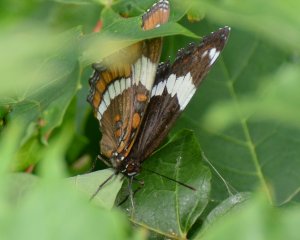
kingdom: Animalia
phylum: Arthropoda
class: Insecta
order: Lepidoptera
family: Nymphalidae
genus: Limenitis
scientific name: Limenitis arthemis
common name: Red-spotted Admiral
